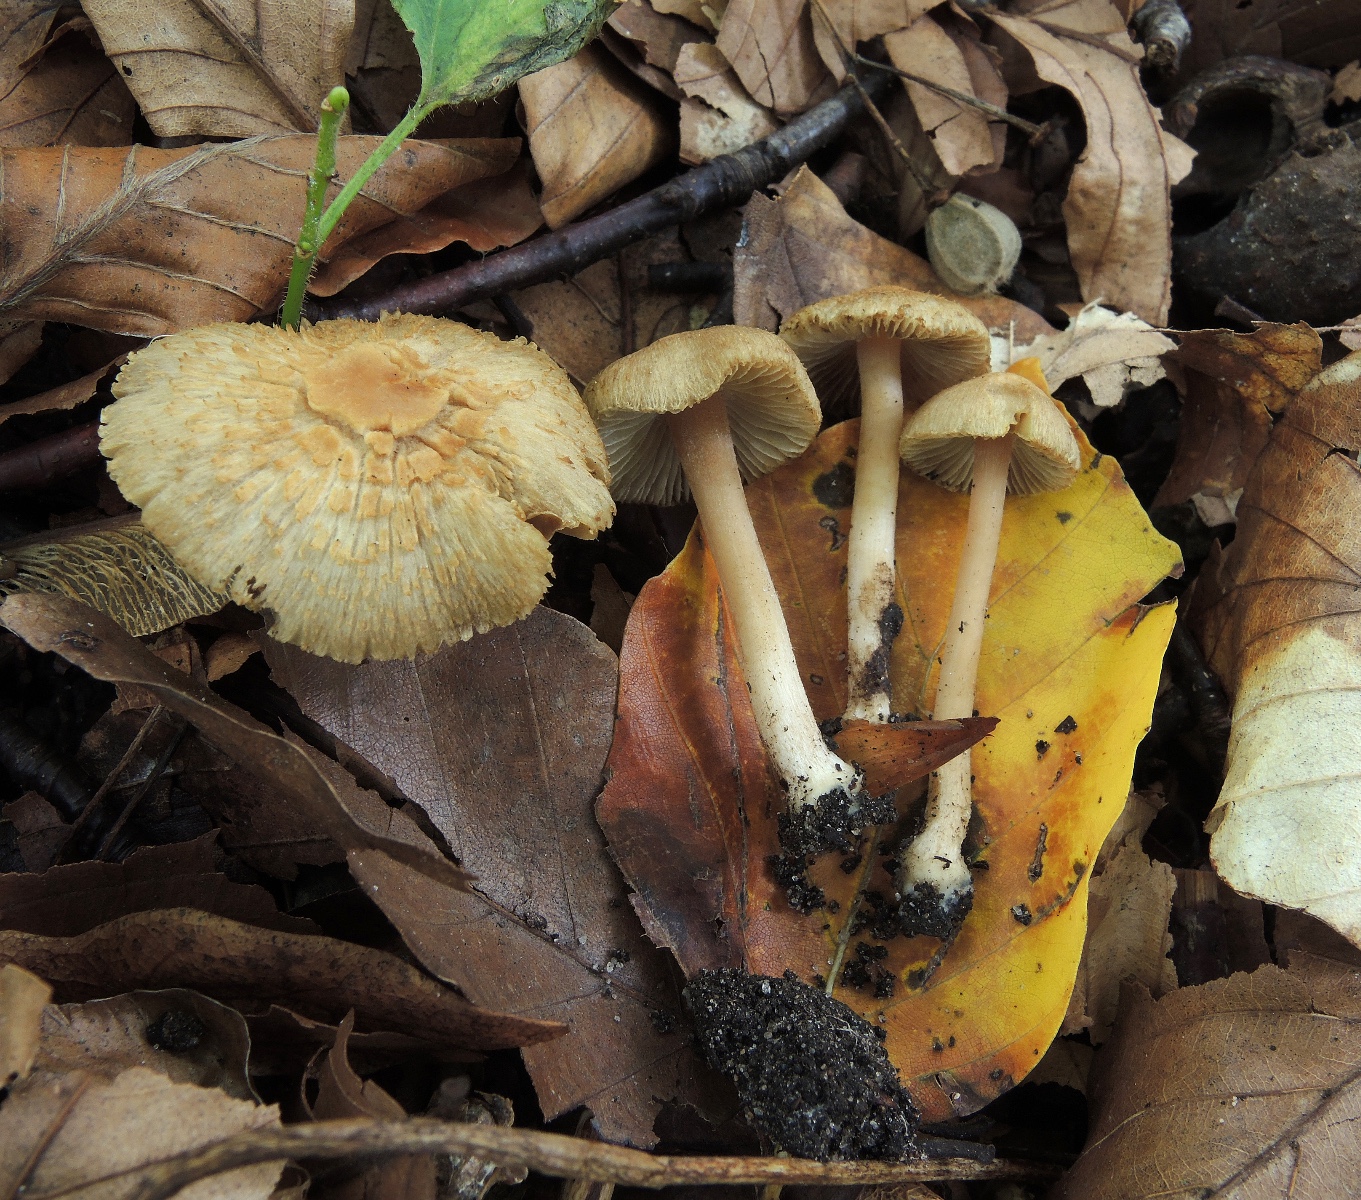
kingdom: Fungi
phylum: Basidiomycota
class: Agaricomycetes
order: Agaricales
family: Inocybaceae
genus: Inocybe
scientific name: Inocybe mycenoides
